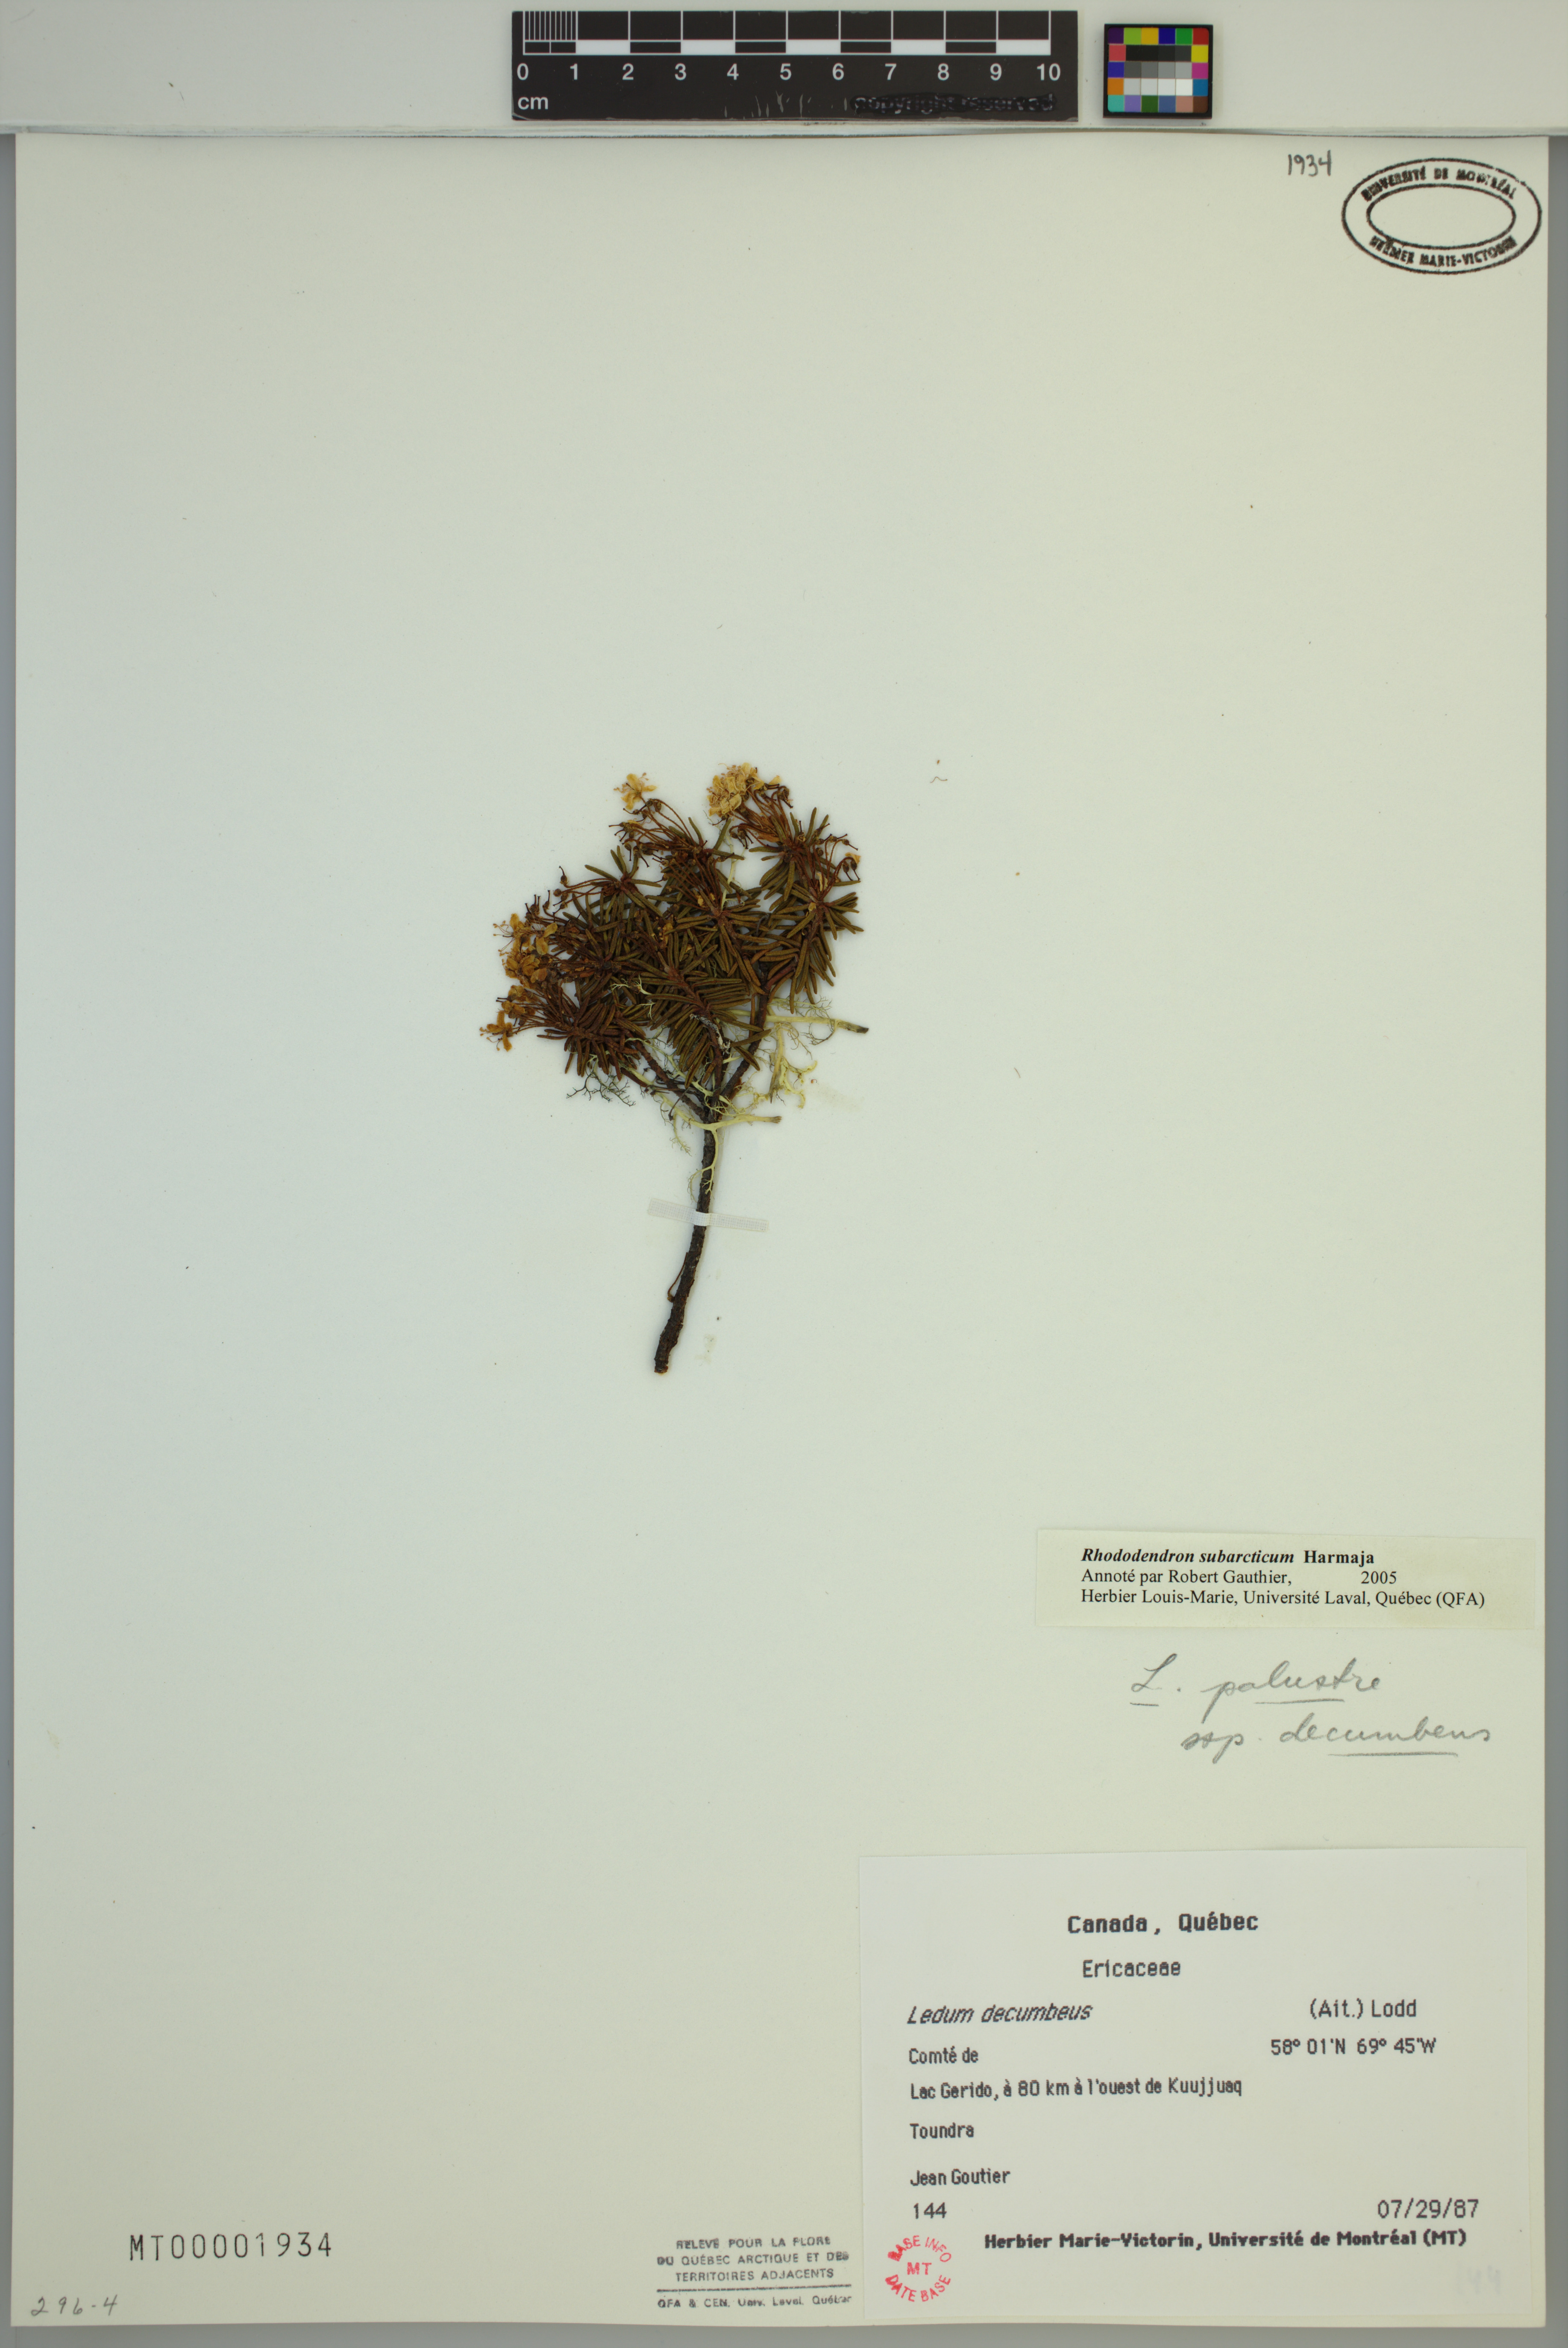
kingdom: Plantae
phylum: Tracheophyta
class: Magnoliopsida
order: Ericales
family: Ericaceae
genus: Rhododendron
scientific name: Rhododendron tomentosum
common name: Marsh labrador tea
